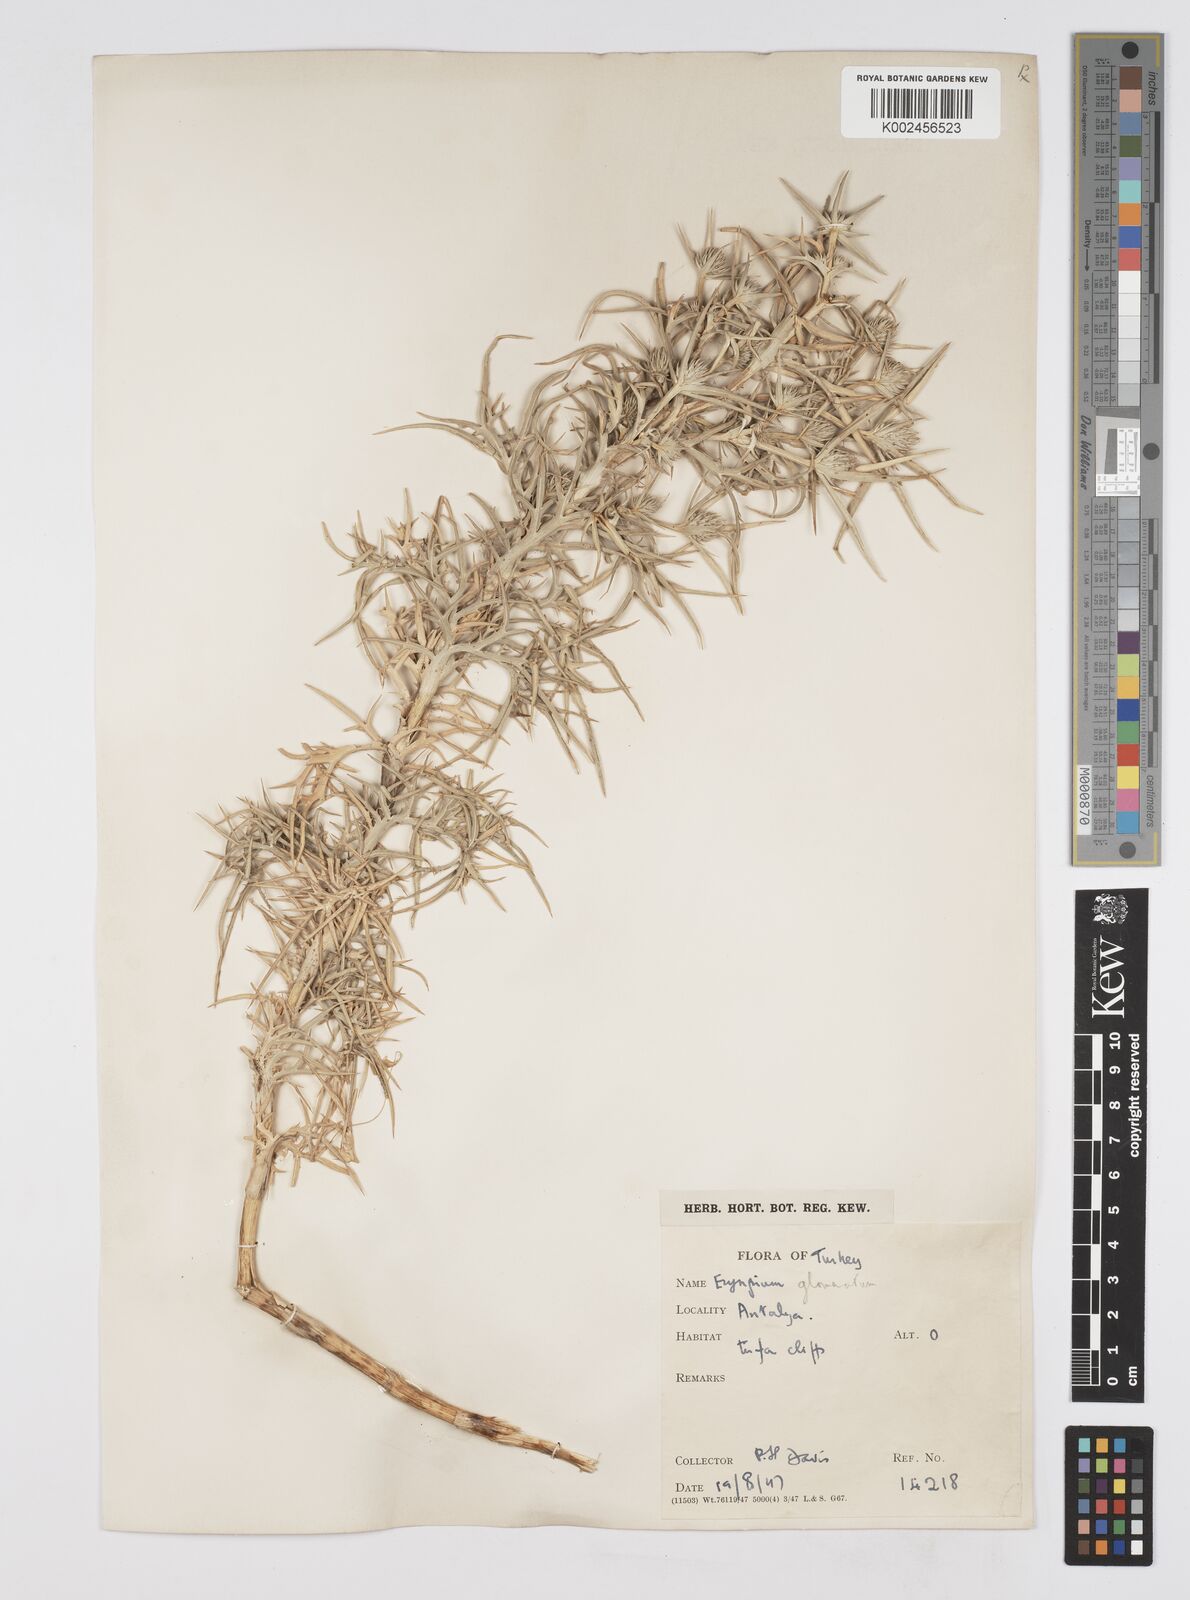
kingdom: Plantae
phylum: Tracheophyta
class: Magnoliopsida
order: Apiales
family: Apiaceae
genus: Eryngium
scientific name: Eryngium glomeratum
